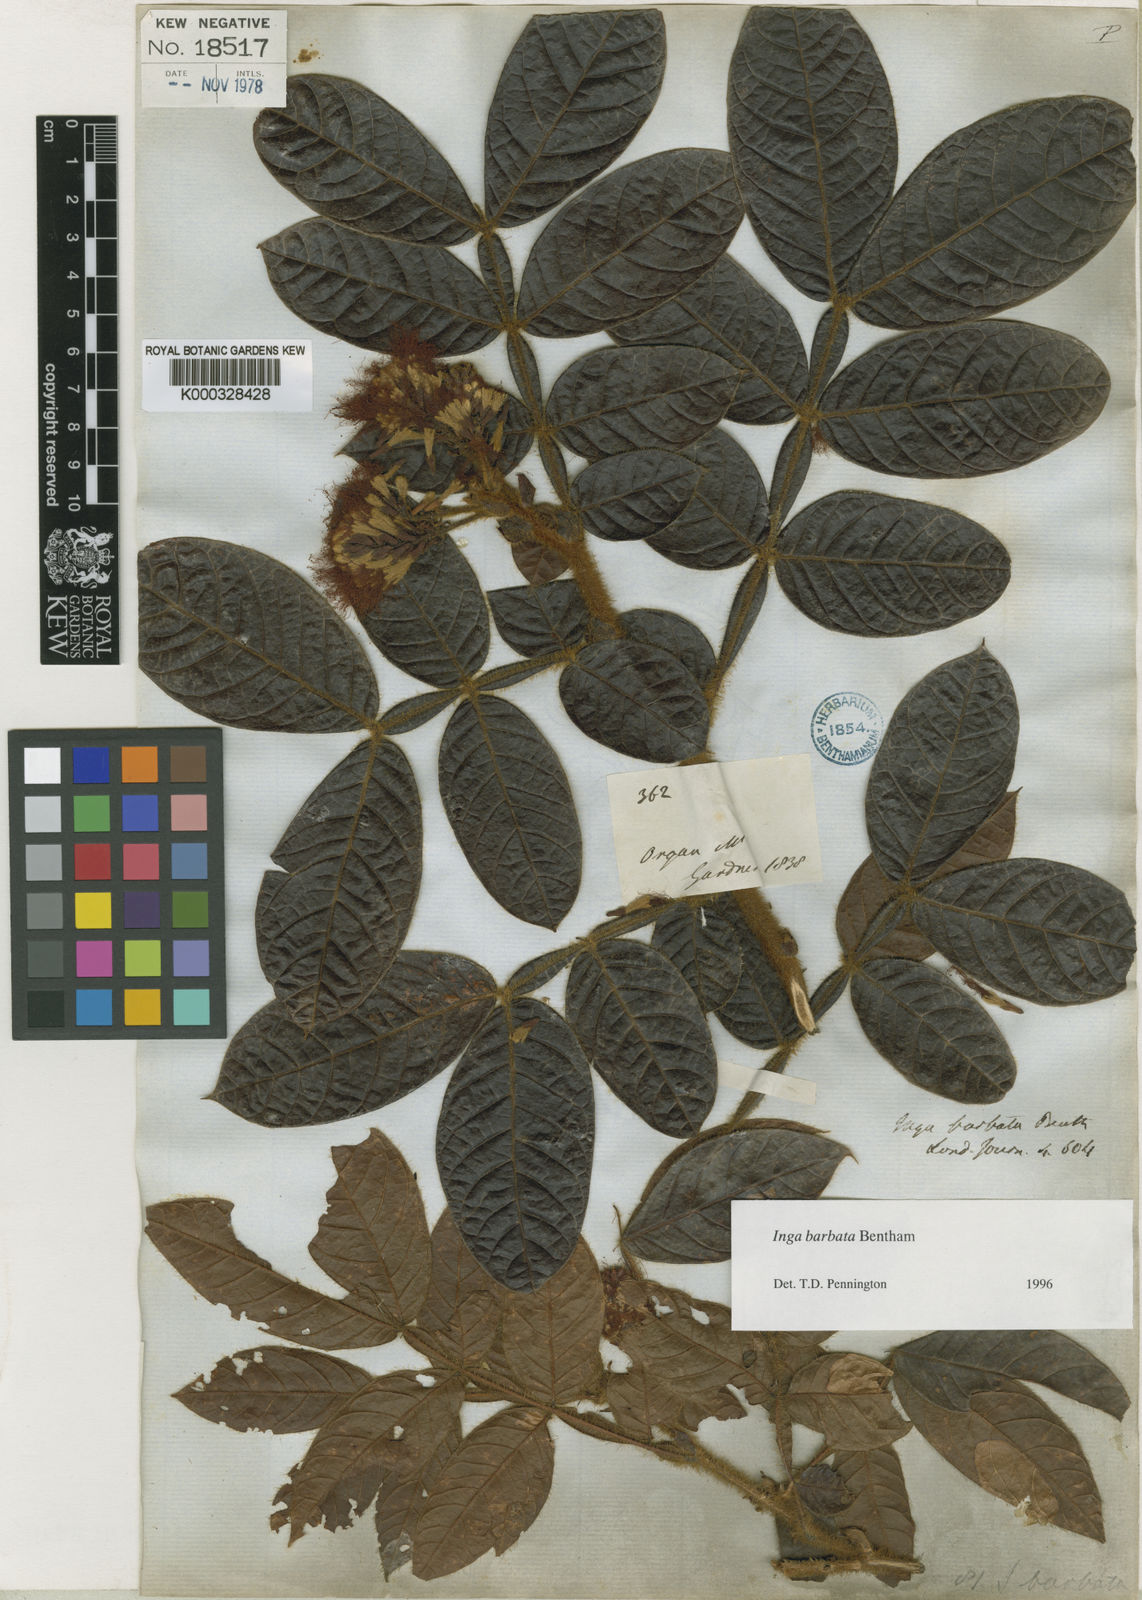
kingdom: Plantae
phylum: Tracheophyta
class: Magnoliopsida
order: Fabales
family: Fabaceae
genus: Inga
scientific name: Inga barbata
